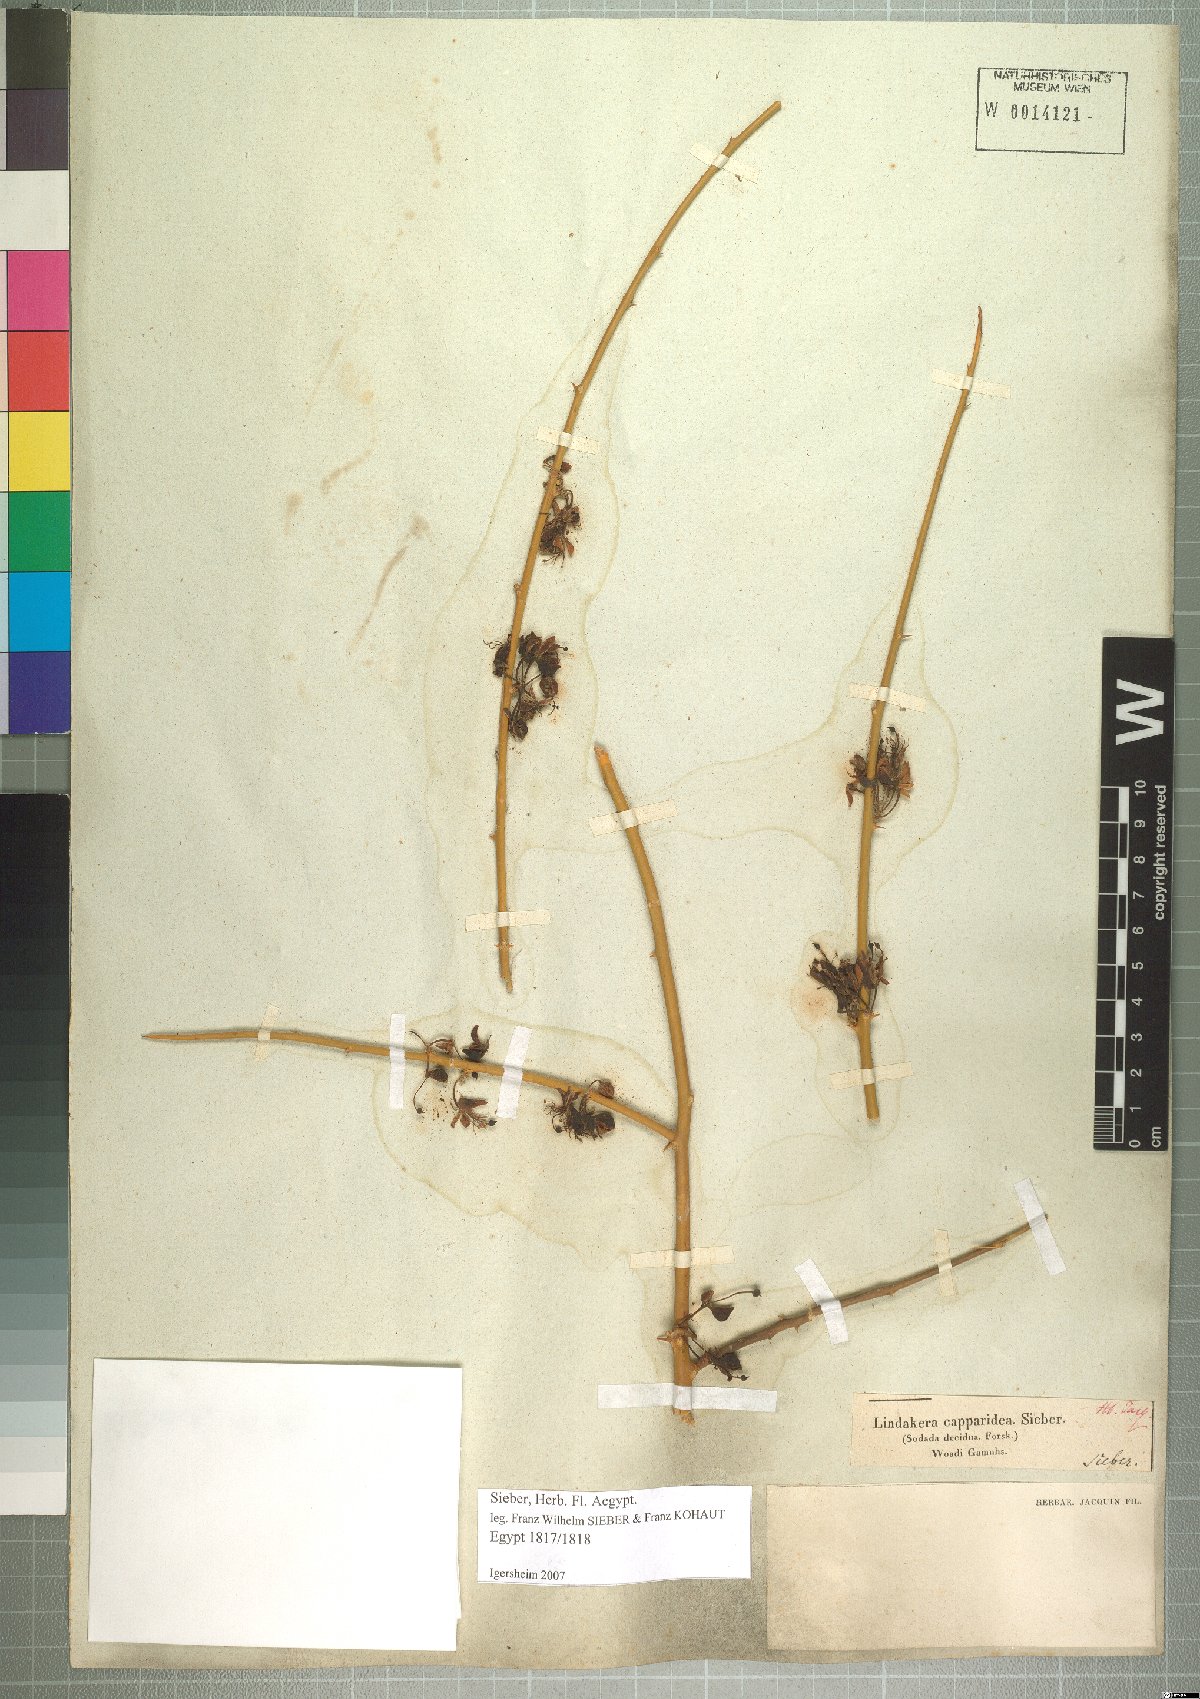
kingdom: Plantae
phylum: Tracheophyta
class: Magnoliopsida
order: Brassicales
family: Capparaceae
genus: Capparis
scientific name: Capparis decidua
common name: Sodada
